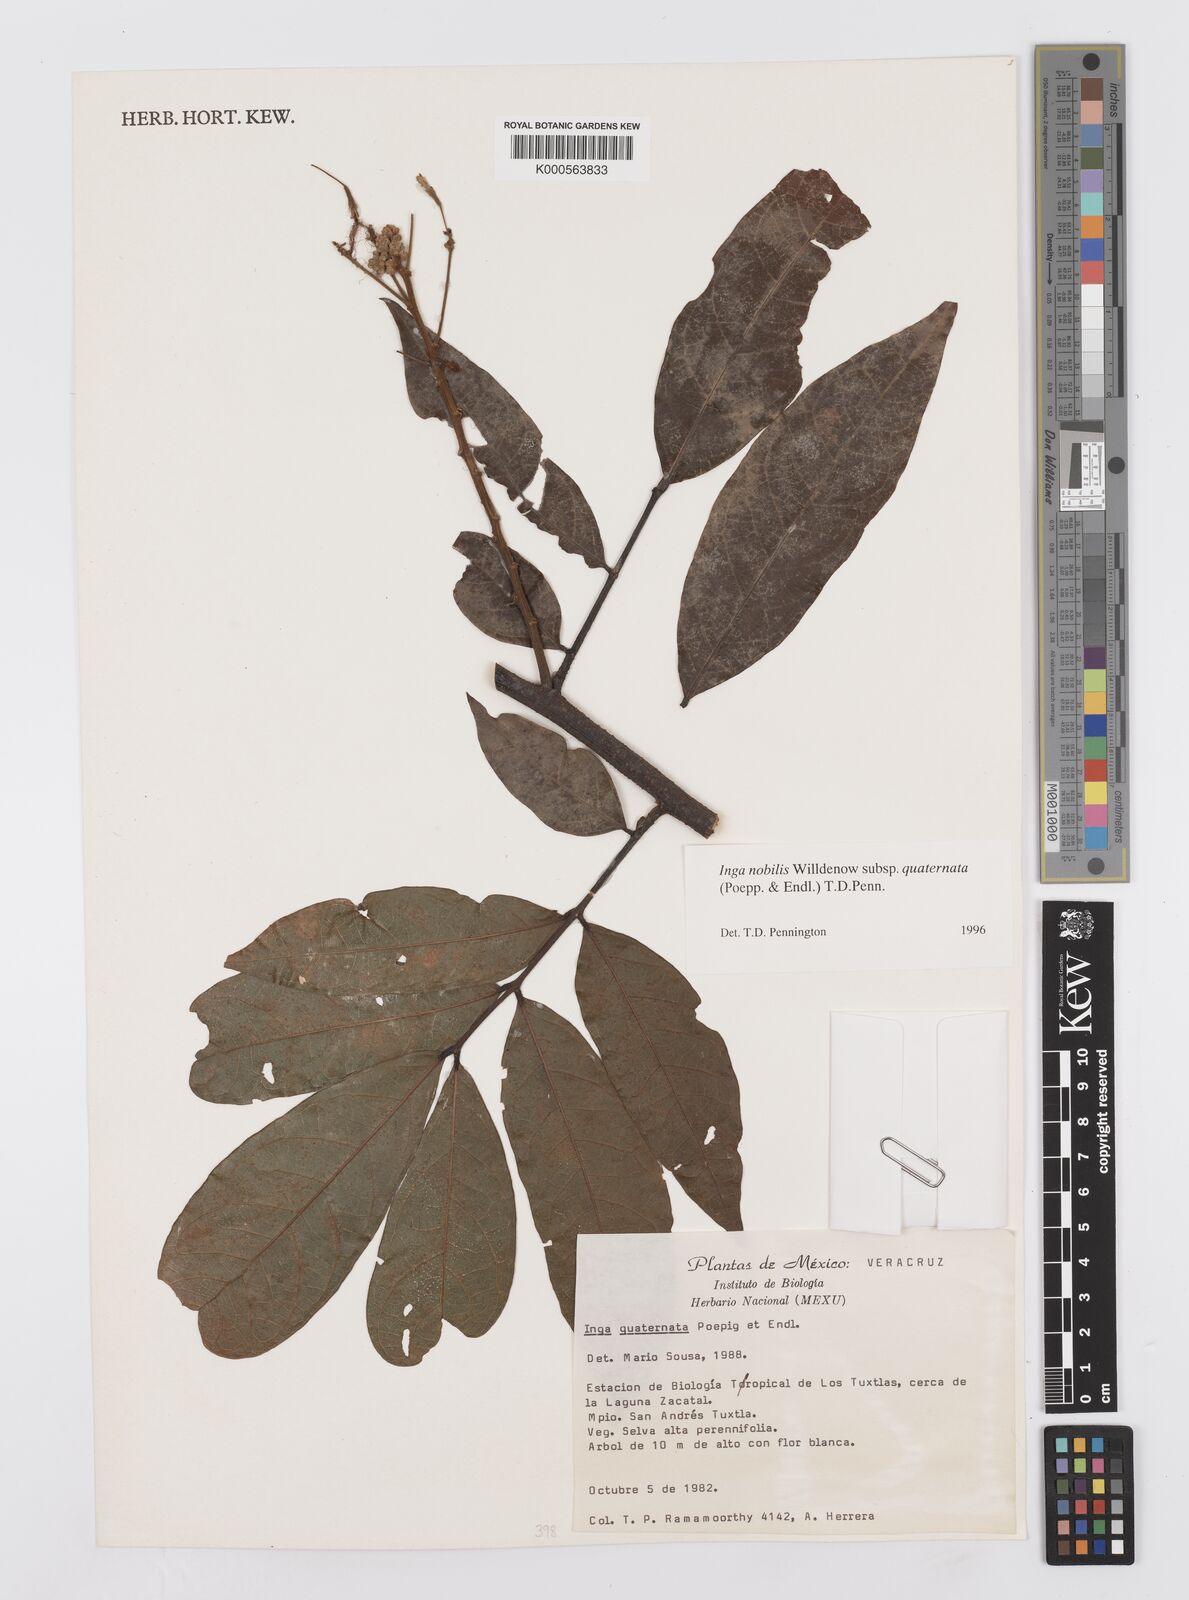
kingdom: Plantae
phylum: Tracheophyta
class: Magnoliopsida
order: Fabales
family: Fabaceae
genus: Inga
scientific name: Inga nobilis
